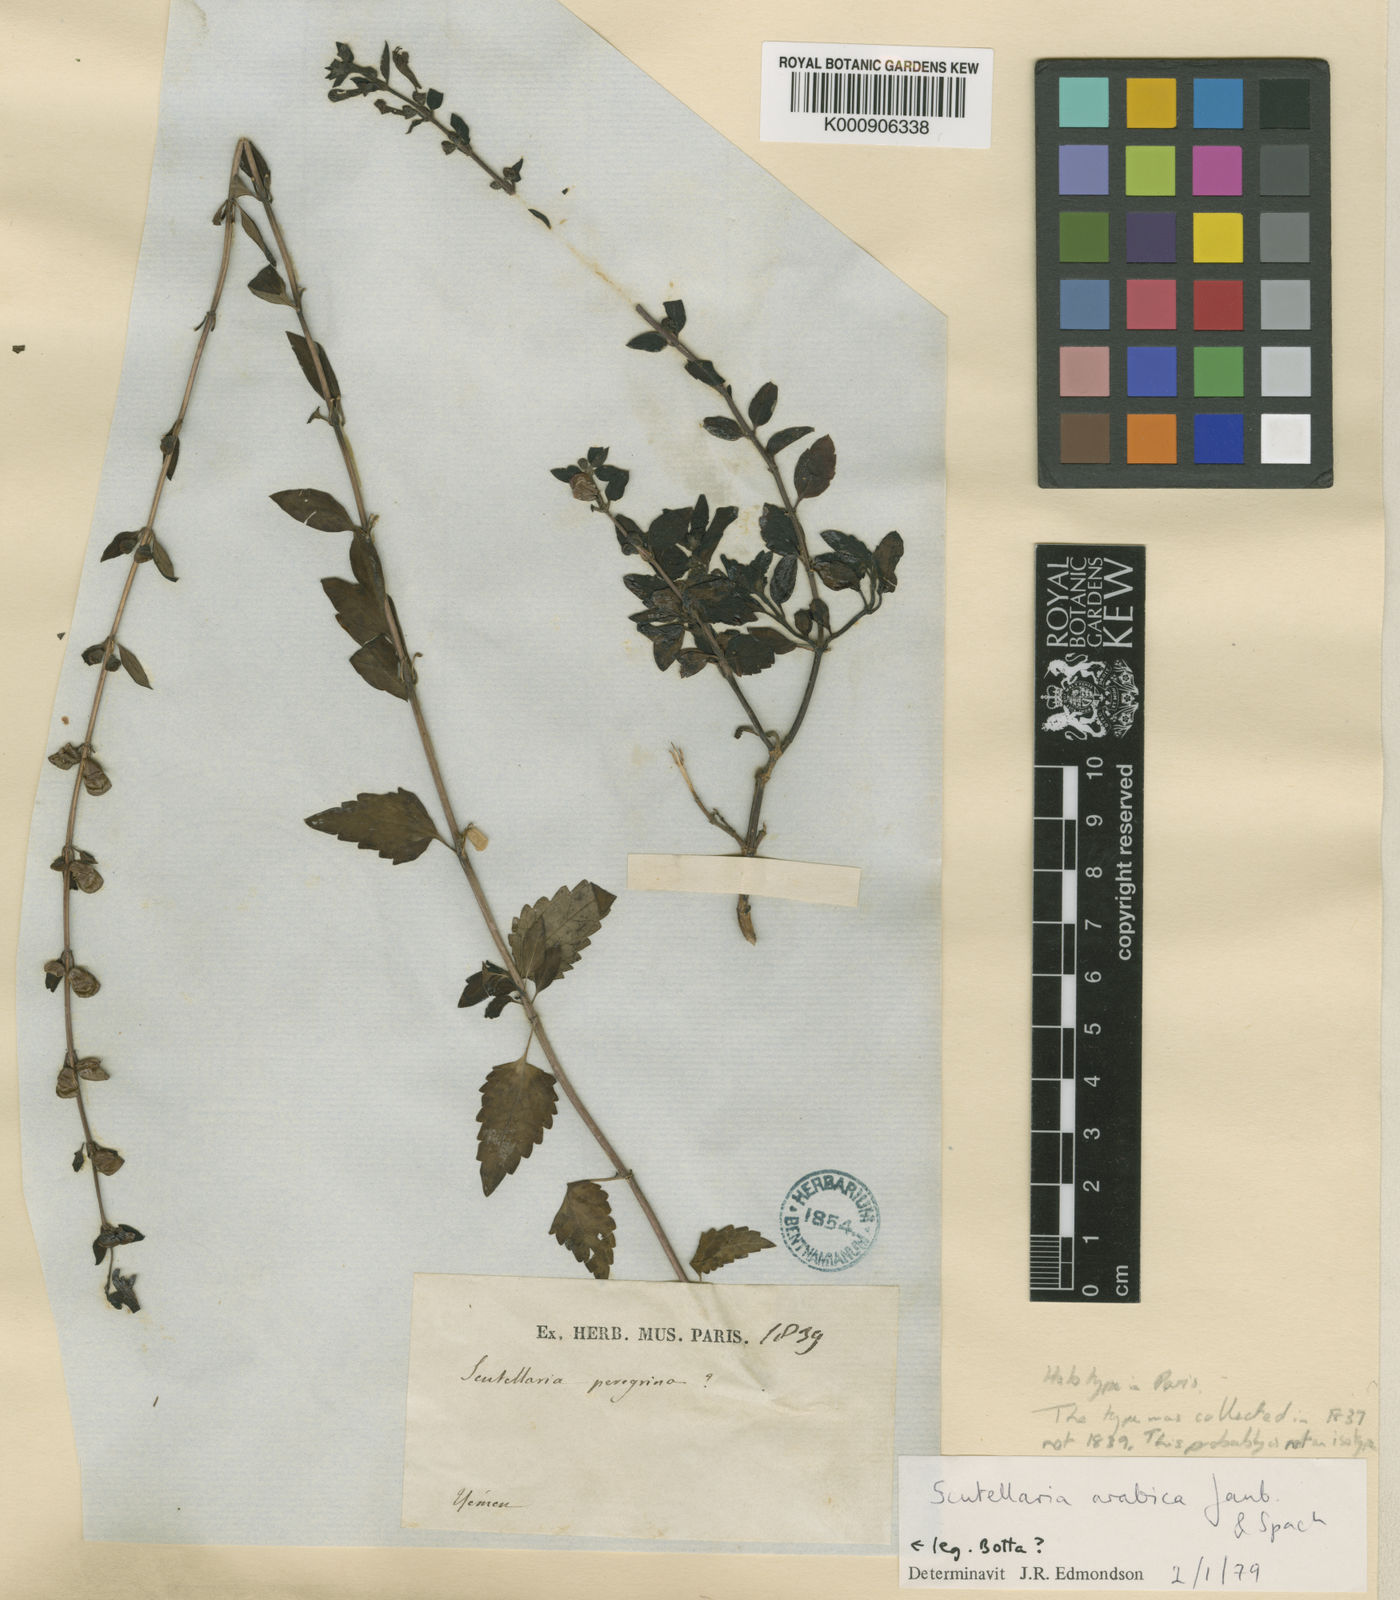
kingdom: Plantae
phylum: Tracheophyta
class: Magnoliopsida
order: Lamiales
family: Lamiaceae
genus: Scutellaria
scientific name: Scutellaria arabica
